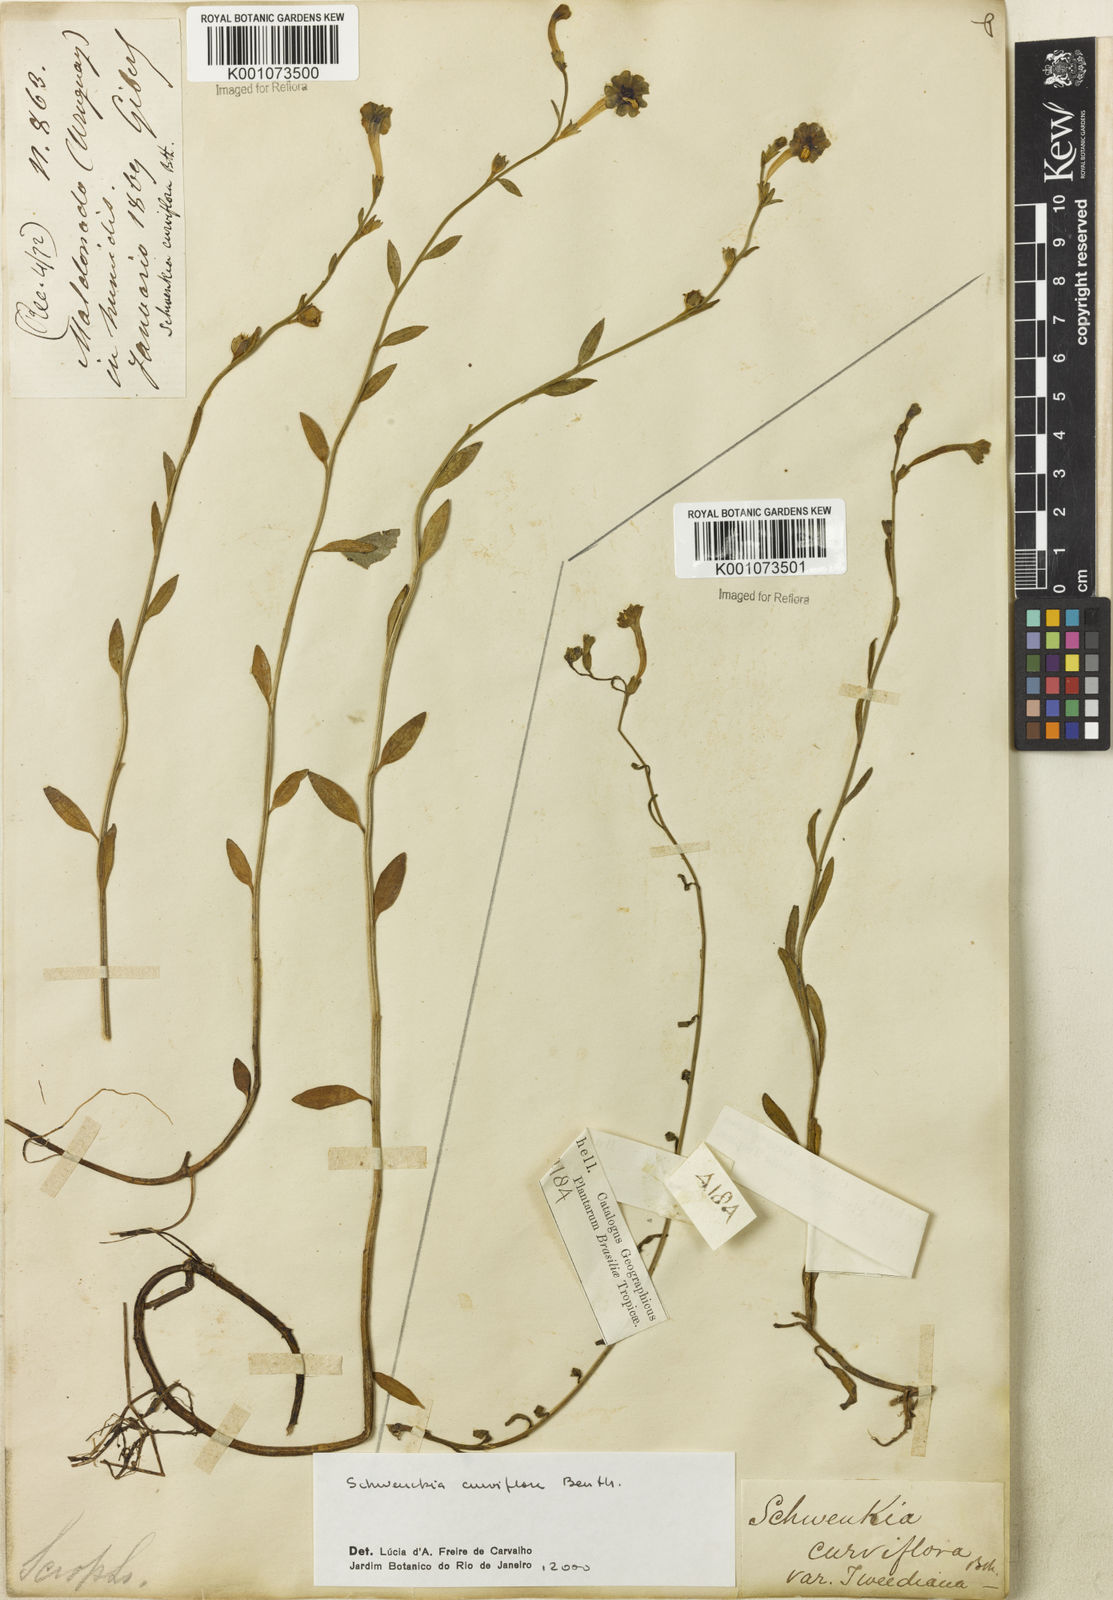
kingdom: Plantae
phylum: Tracheophyta
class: Magnoliopsida
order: Solanales
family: Solanaceae
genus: Schwenckia
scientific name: Schwenckia
